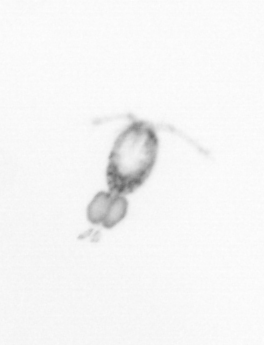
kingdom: Animalia
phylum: Arthropoda
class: Copepoda
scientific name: Copepoda
